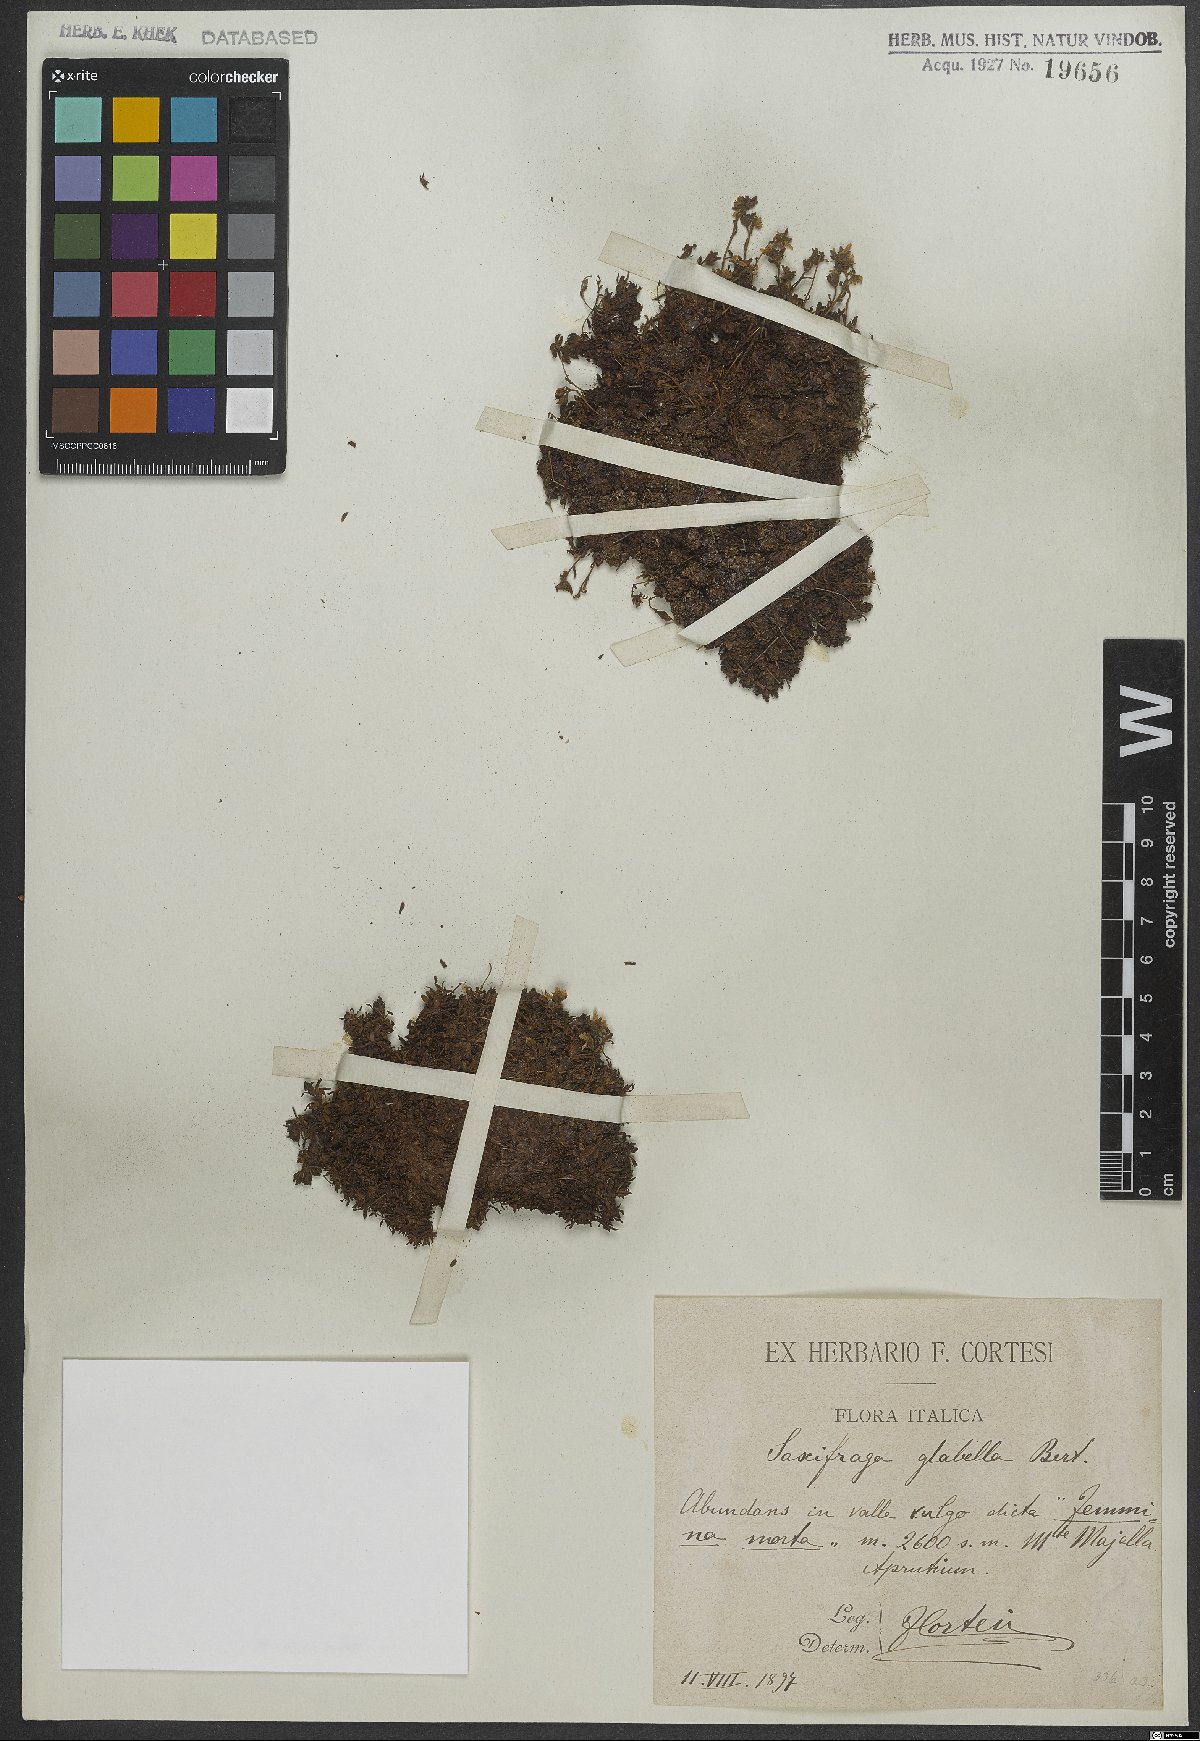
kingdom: Plantae
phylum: Tracheophyta
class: Magnoliopsida
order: Saxifragales
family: Saxifragaceae
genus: Saxifraga
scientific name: Saxifraga glabella
